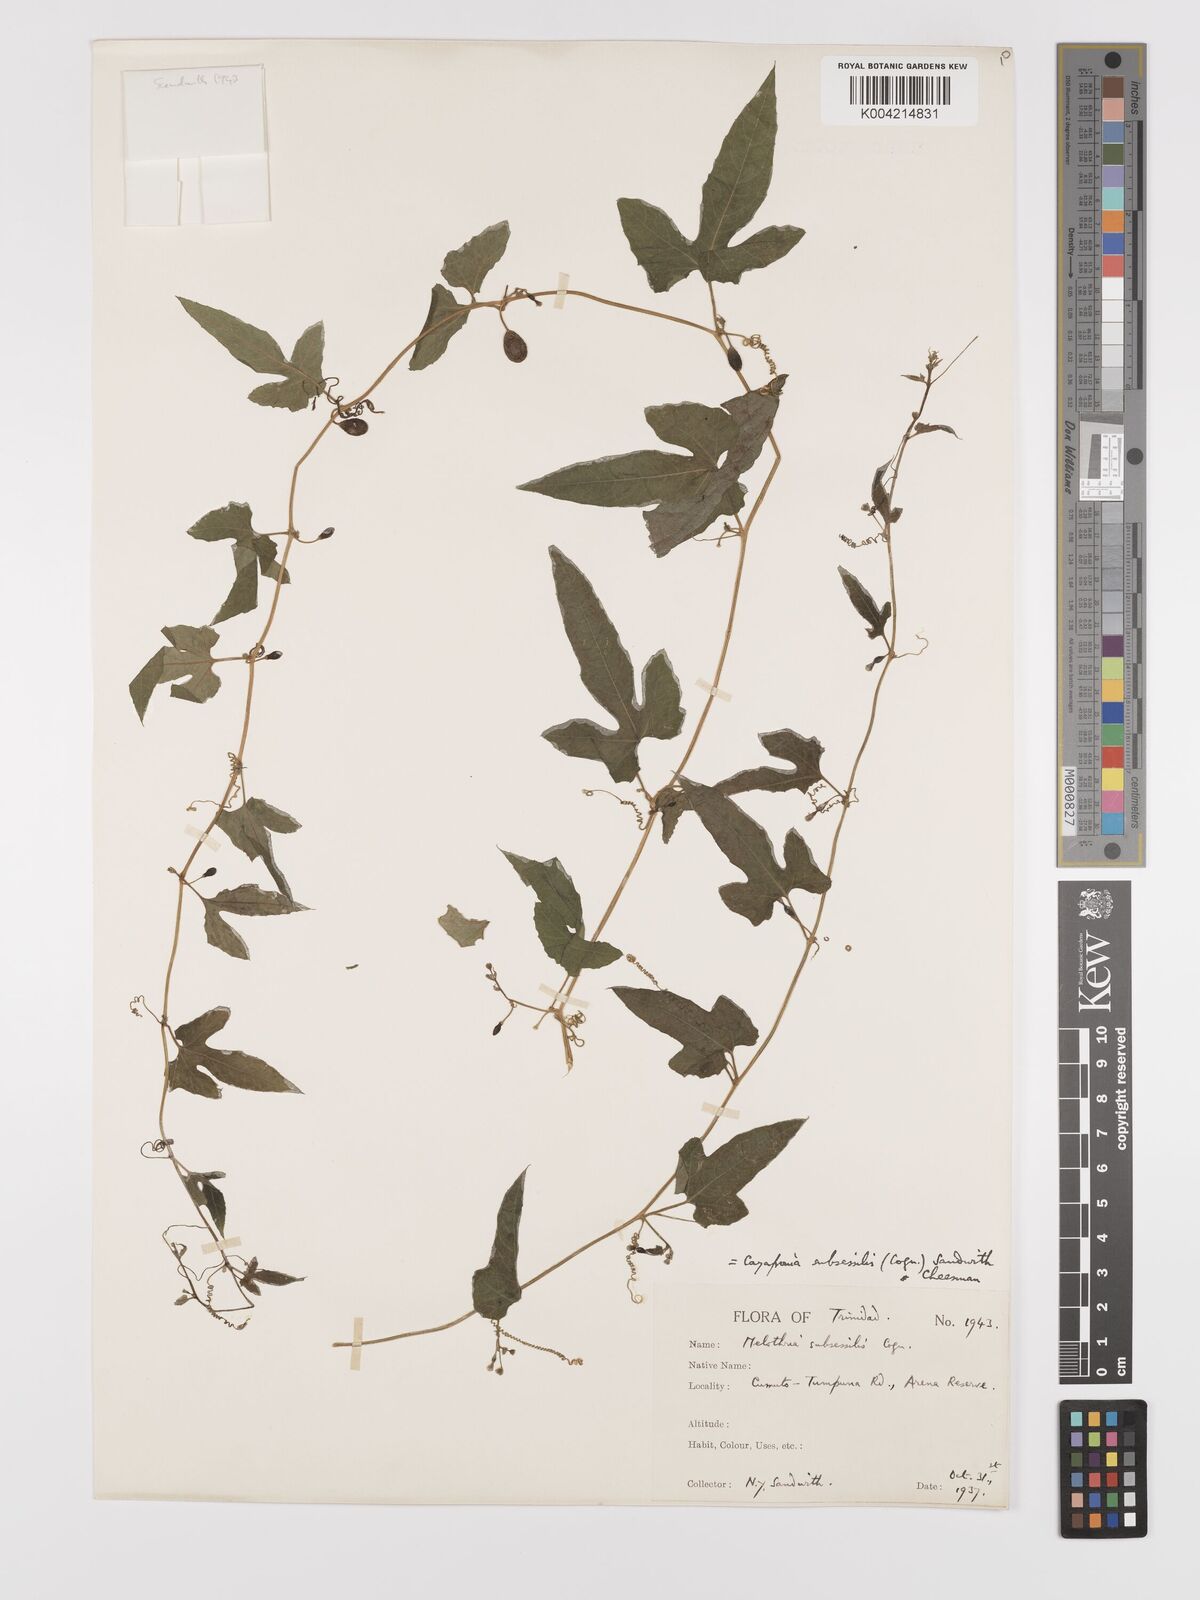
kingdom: Plantae
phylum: Tracheophyta
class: Magnoliopsida
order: Cucurbitales
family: Cucurbitaceae
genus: Cayaponia
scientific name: Cayaponia triangularis
